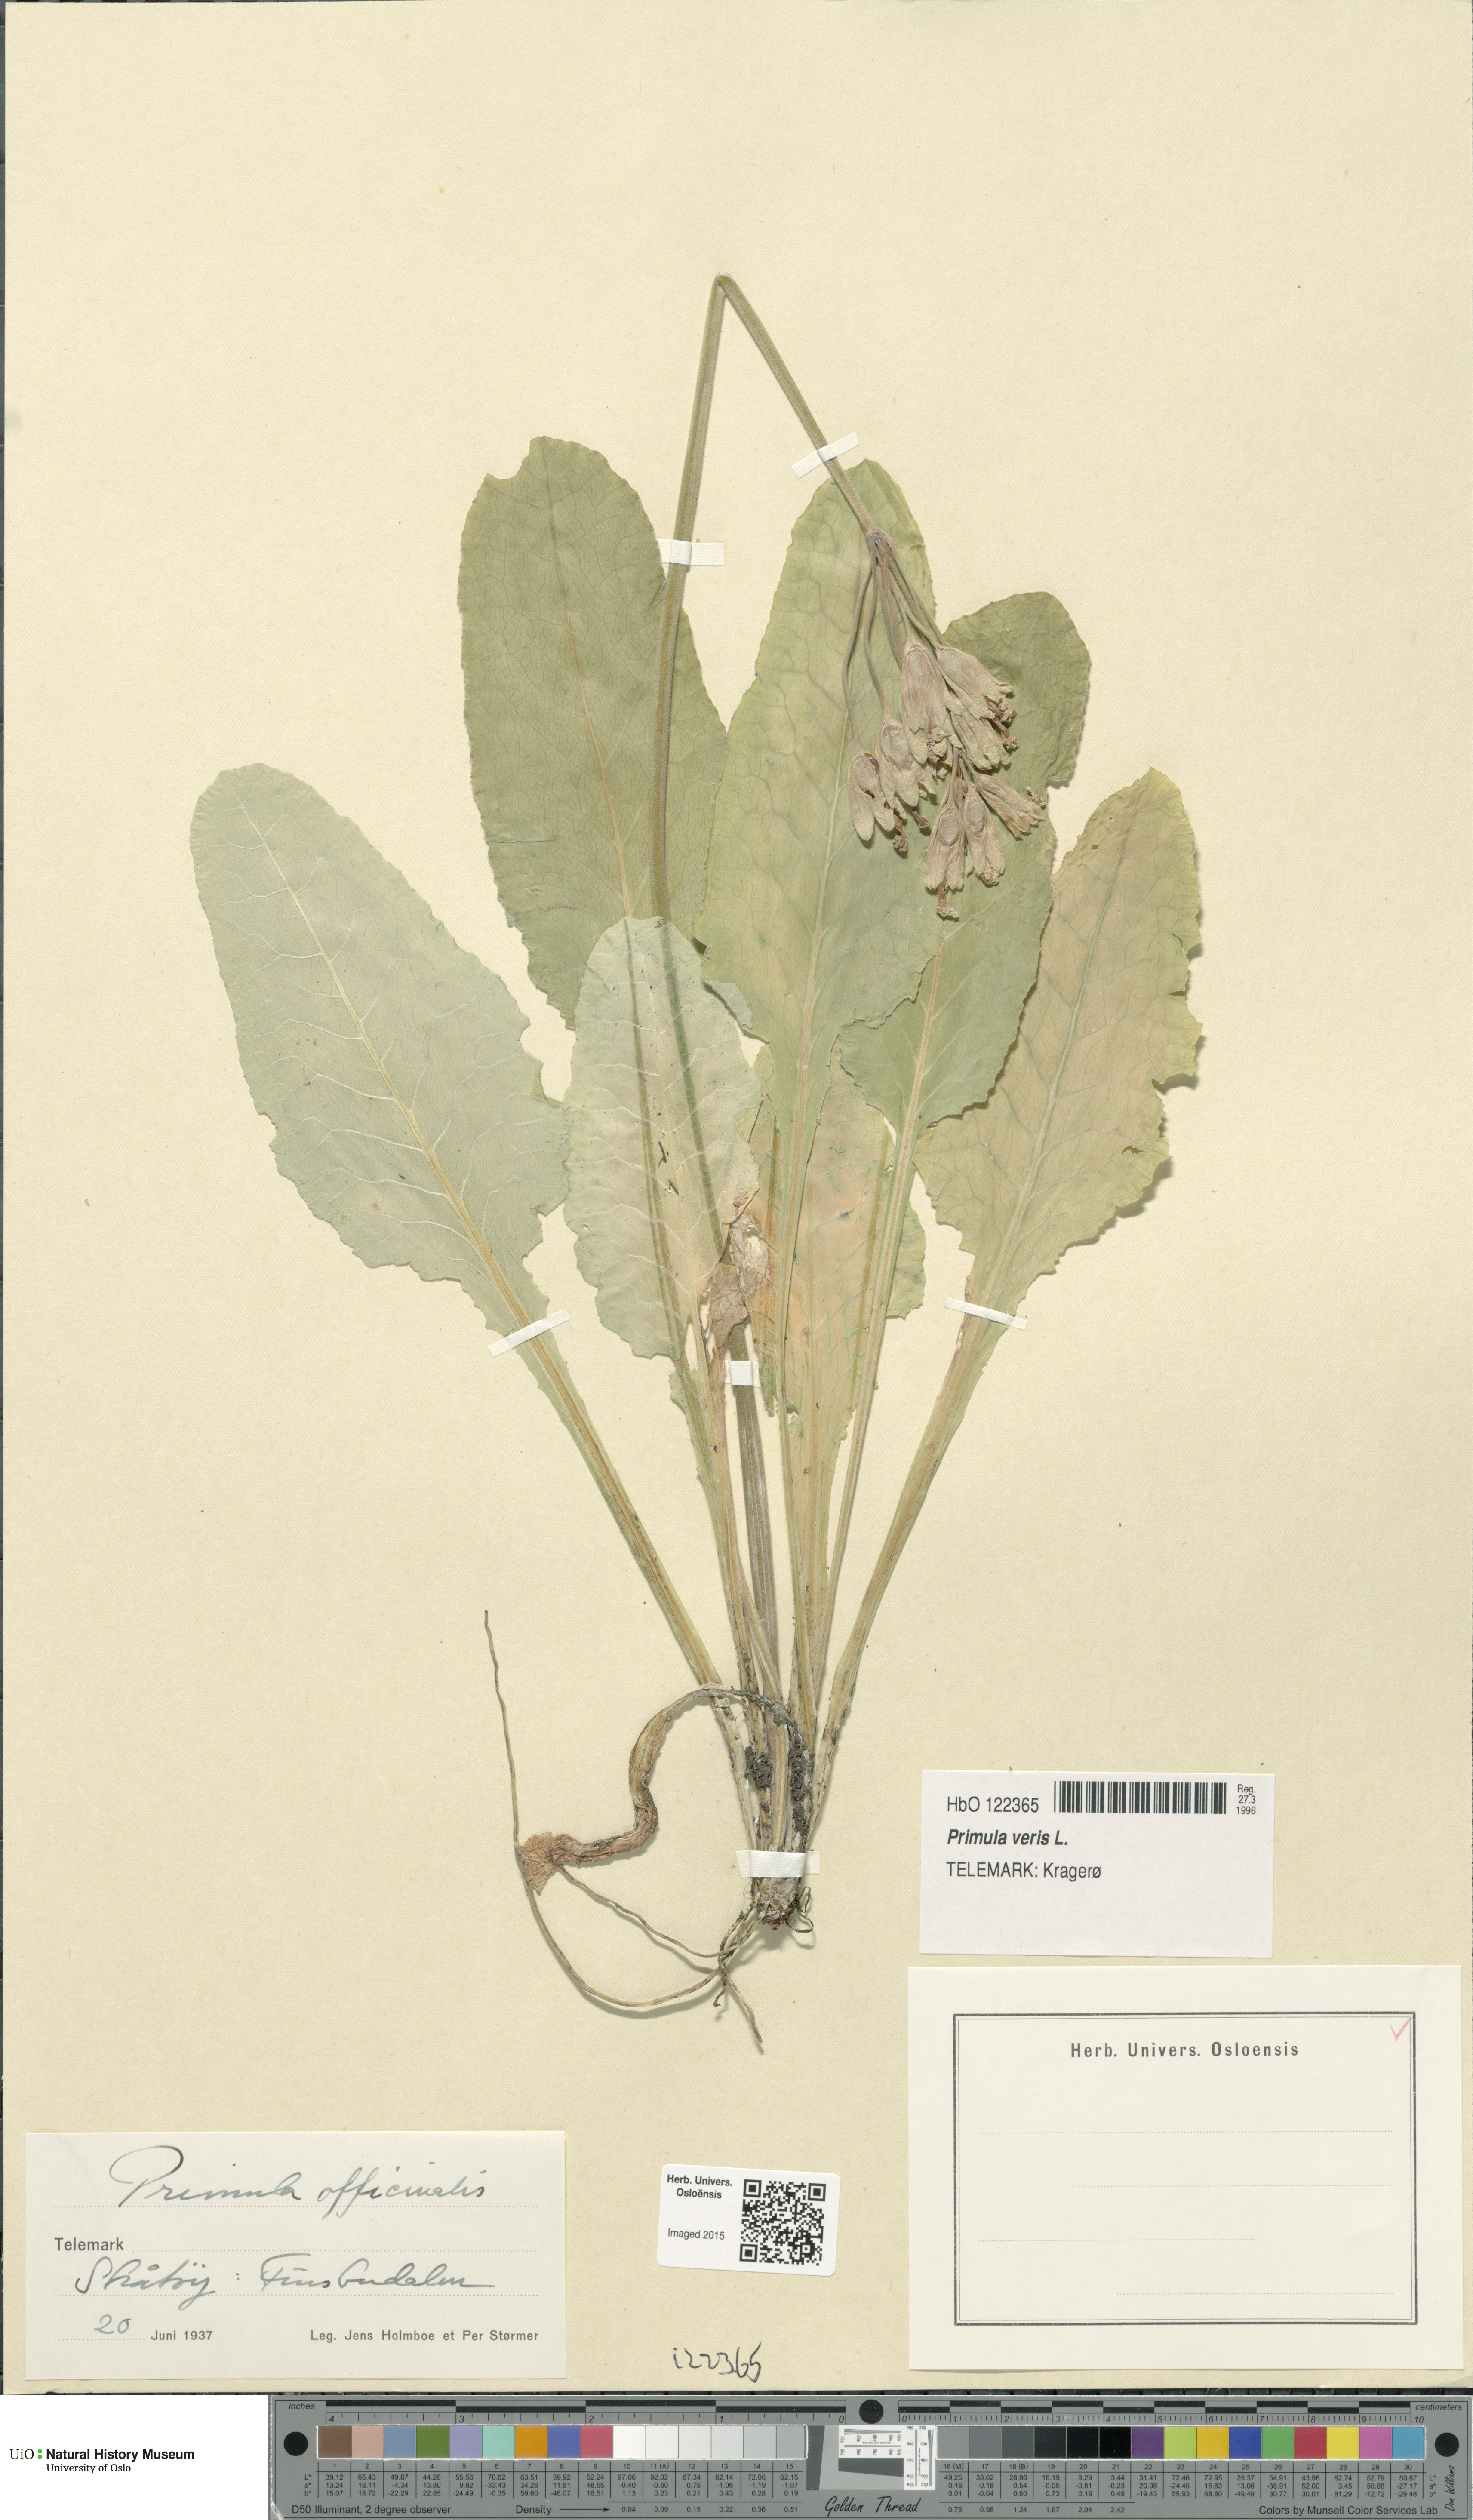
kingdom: Plantae
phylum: Tracheophyta
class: Magnoliopsida
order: Ericales
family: Primulaceae
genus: Primula
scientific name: Primula veris
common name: Cowslip
